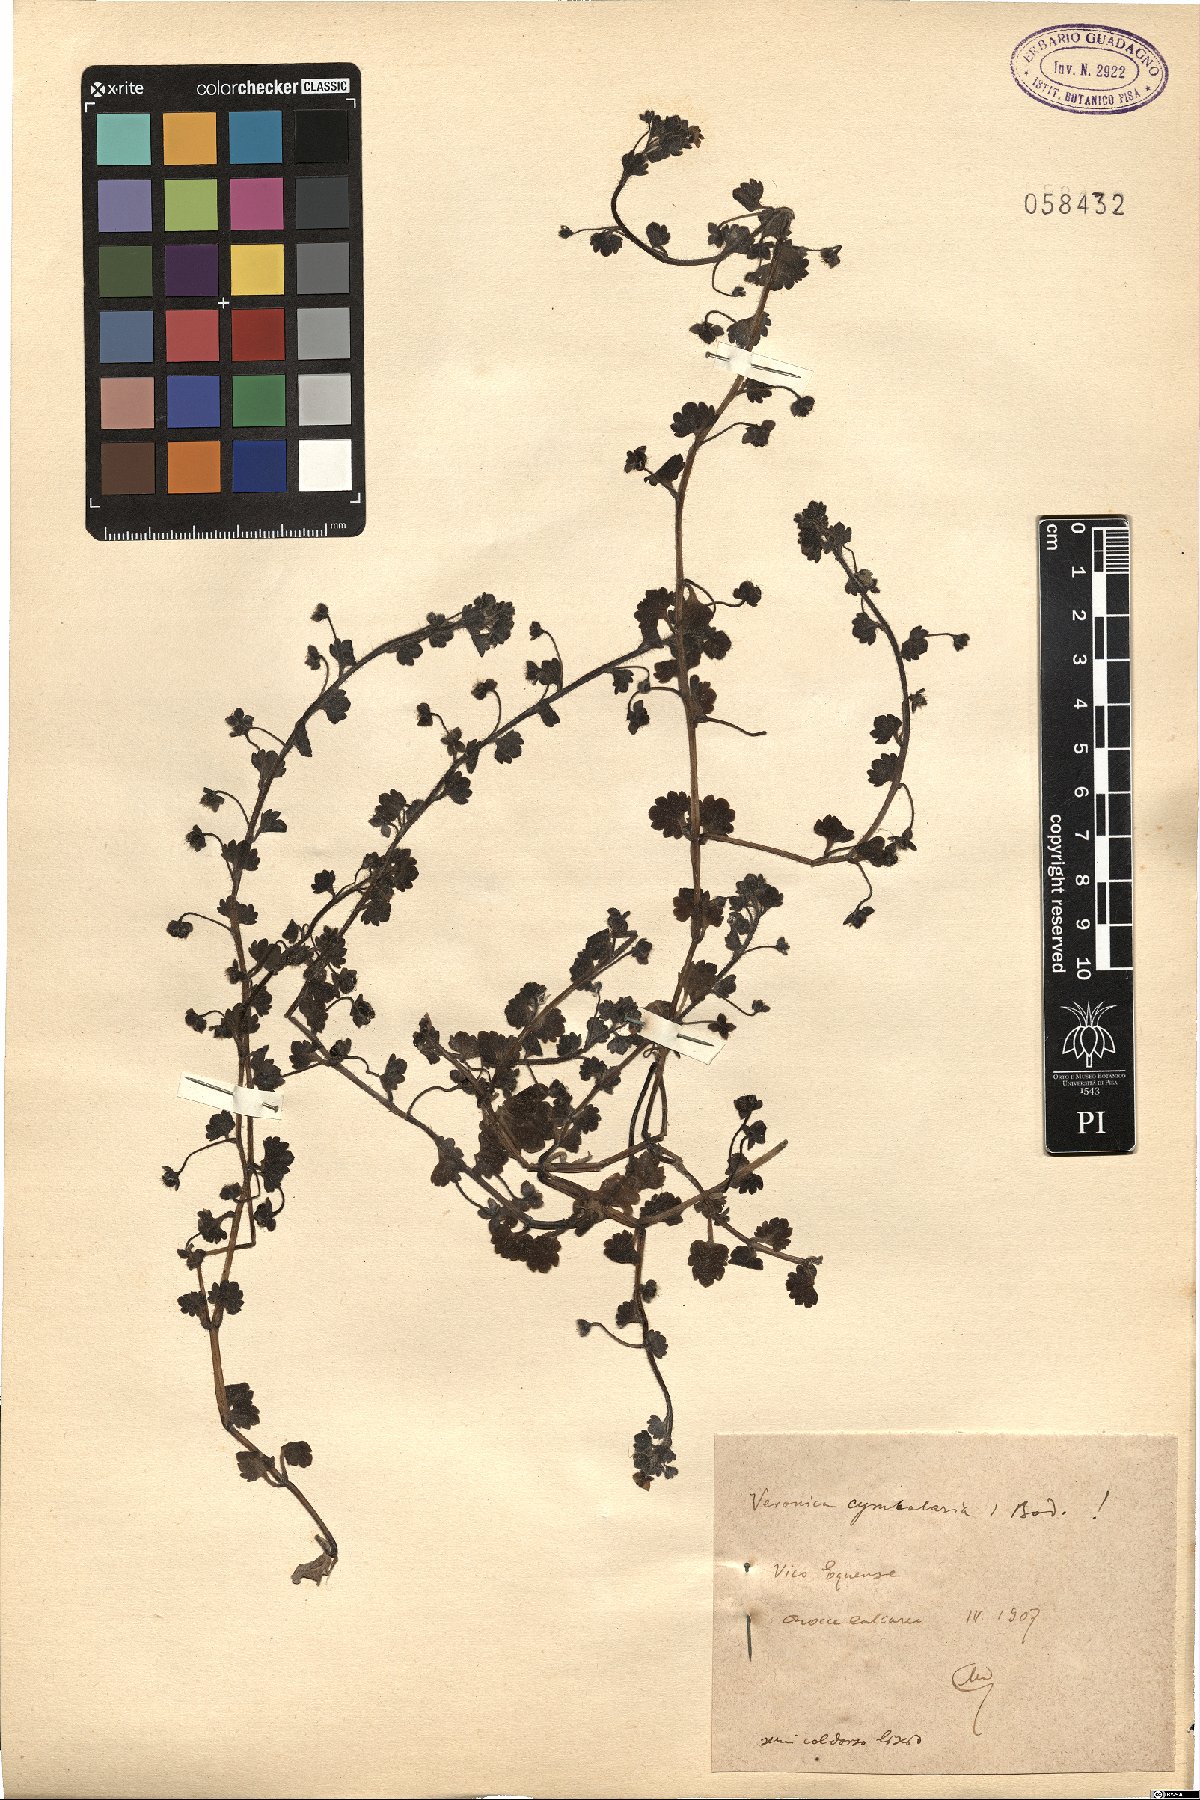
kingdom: Plantae
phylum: Tracheophyta
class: Magnoliopsida
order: Lamiales
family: Plantaginaceae
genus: Veronica
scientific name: Veronica cymbalaria
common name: Pale speedwell
